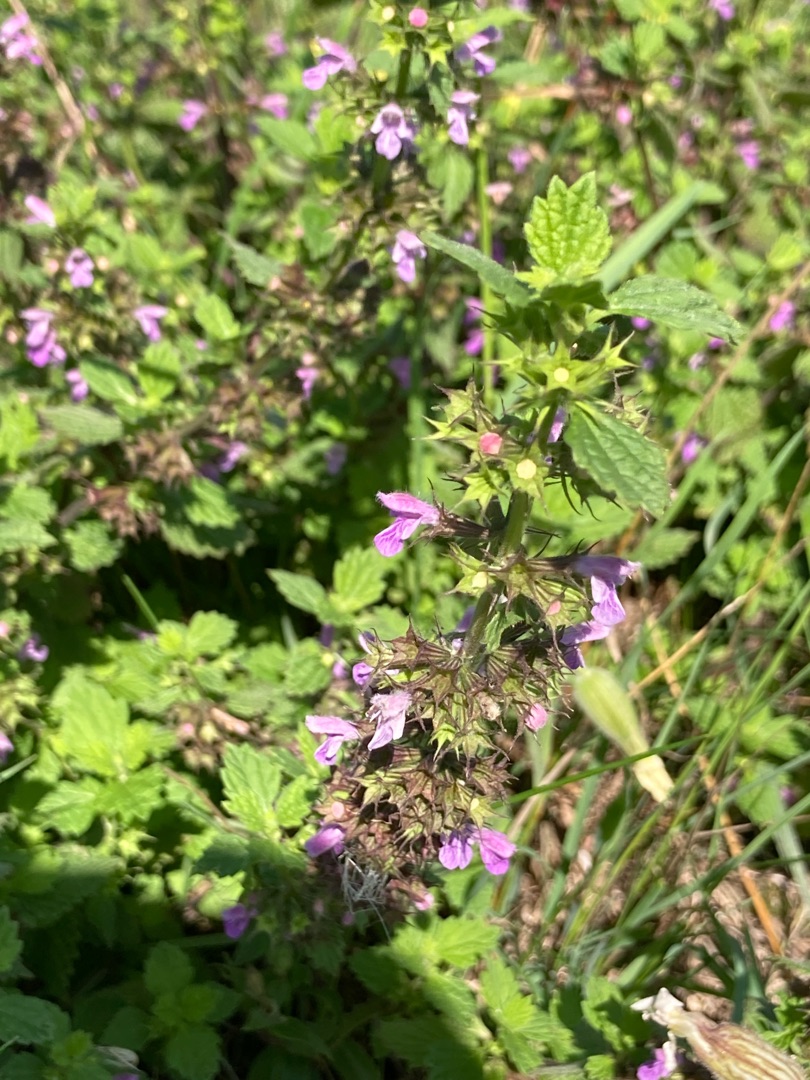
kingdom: Plantae
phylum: Tracheophyta
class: Magnoliopsida
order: Lamiales
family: Lamiaceae
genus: Ballota
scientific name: Ballota nigra
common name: Tandbæger
